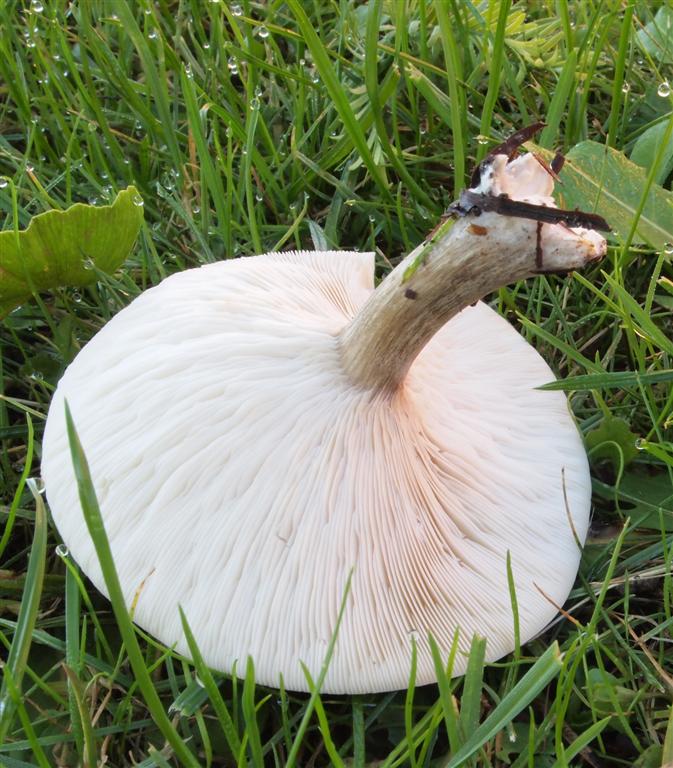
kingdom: Fungi
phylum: Basidiomycota
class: Agaricomycetes
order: Agaricales
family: Tricholomataceae
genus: Melanoleuca
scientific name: Melanoleuca grammopodia
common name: stribestokket munkehat
